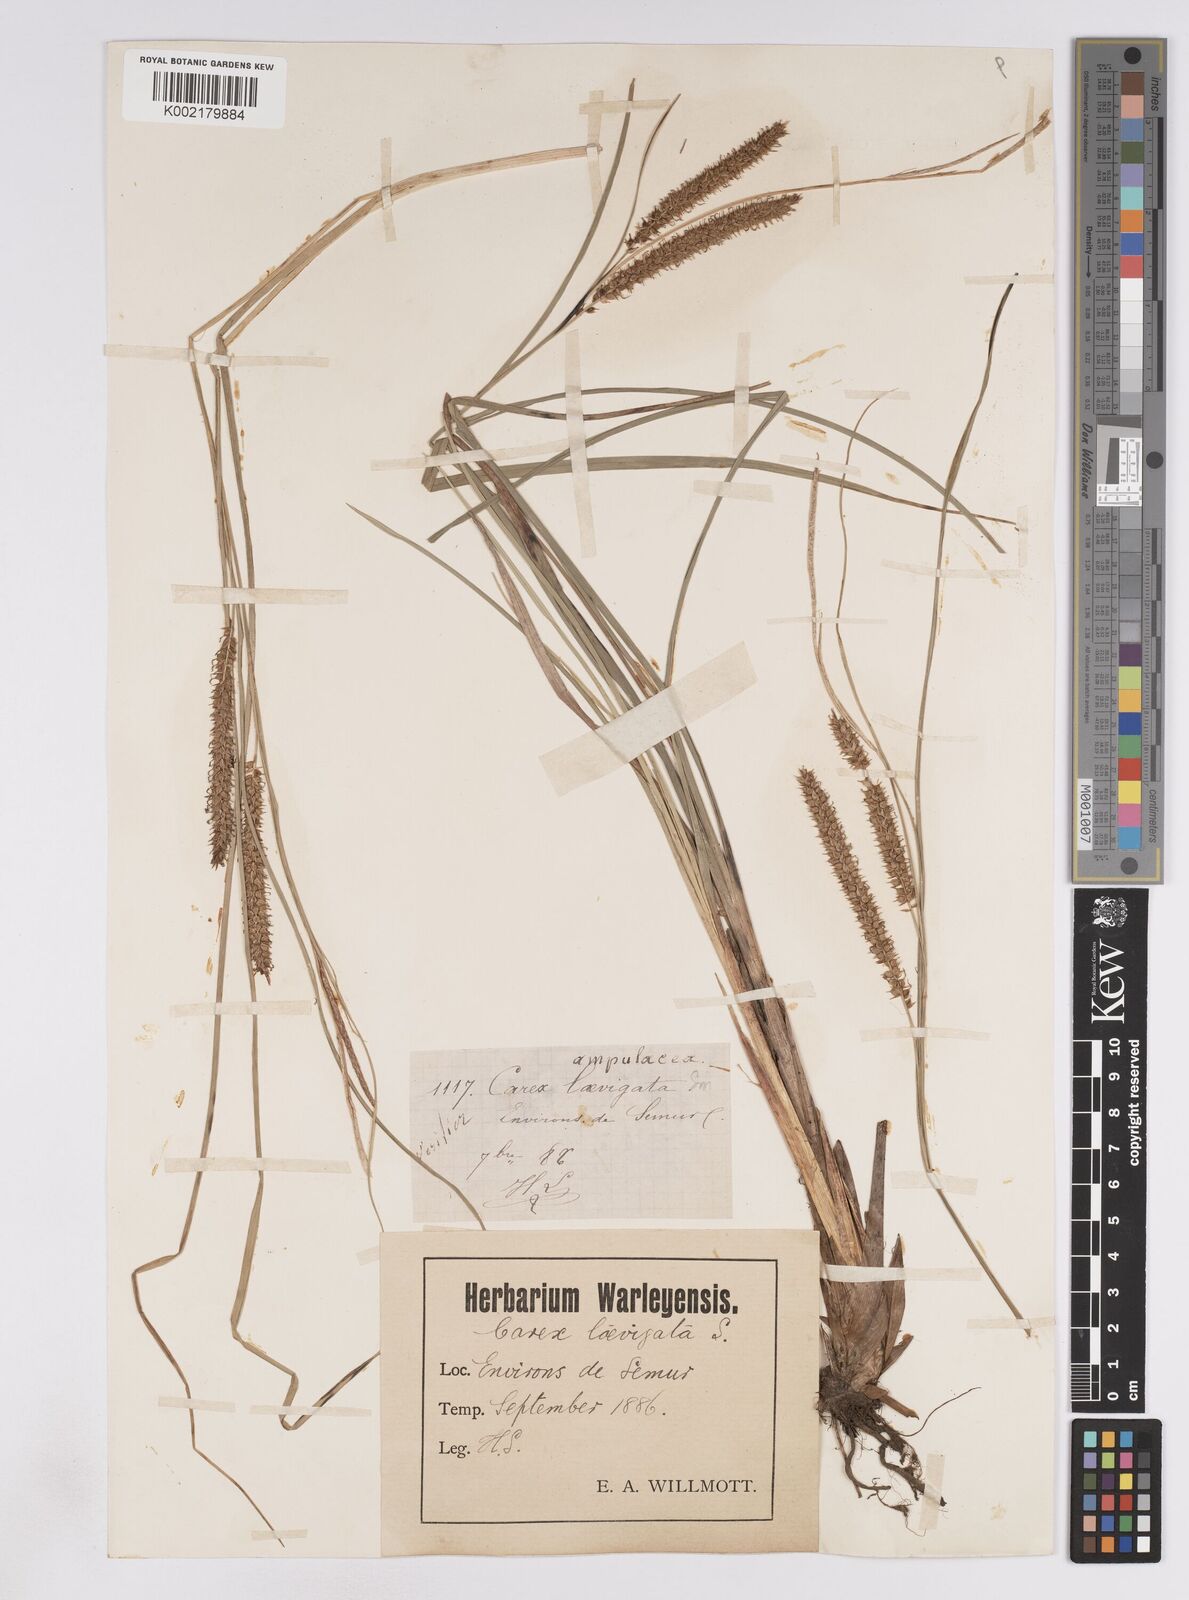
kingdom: Plantae
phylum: Tracheophyta
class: Liliopsida
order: Poales
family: Cyperaceae
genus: Carex
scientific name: Carex rostrata
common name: Bottle sedge
